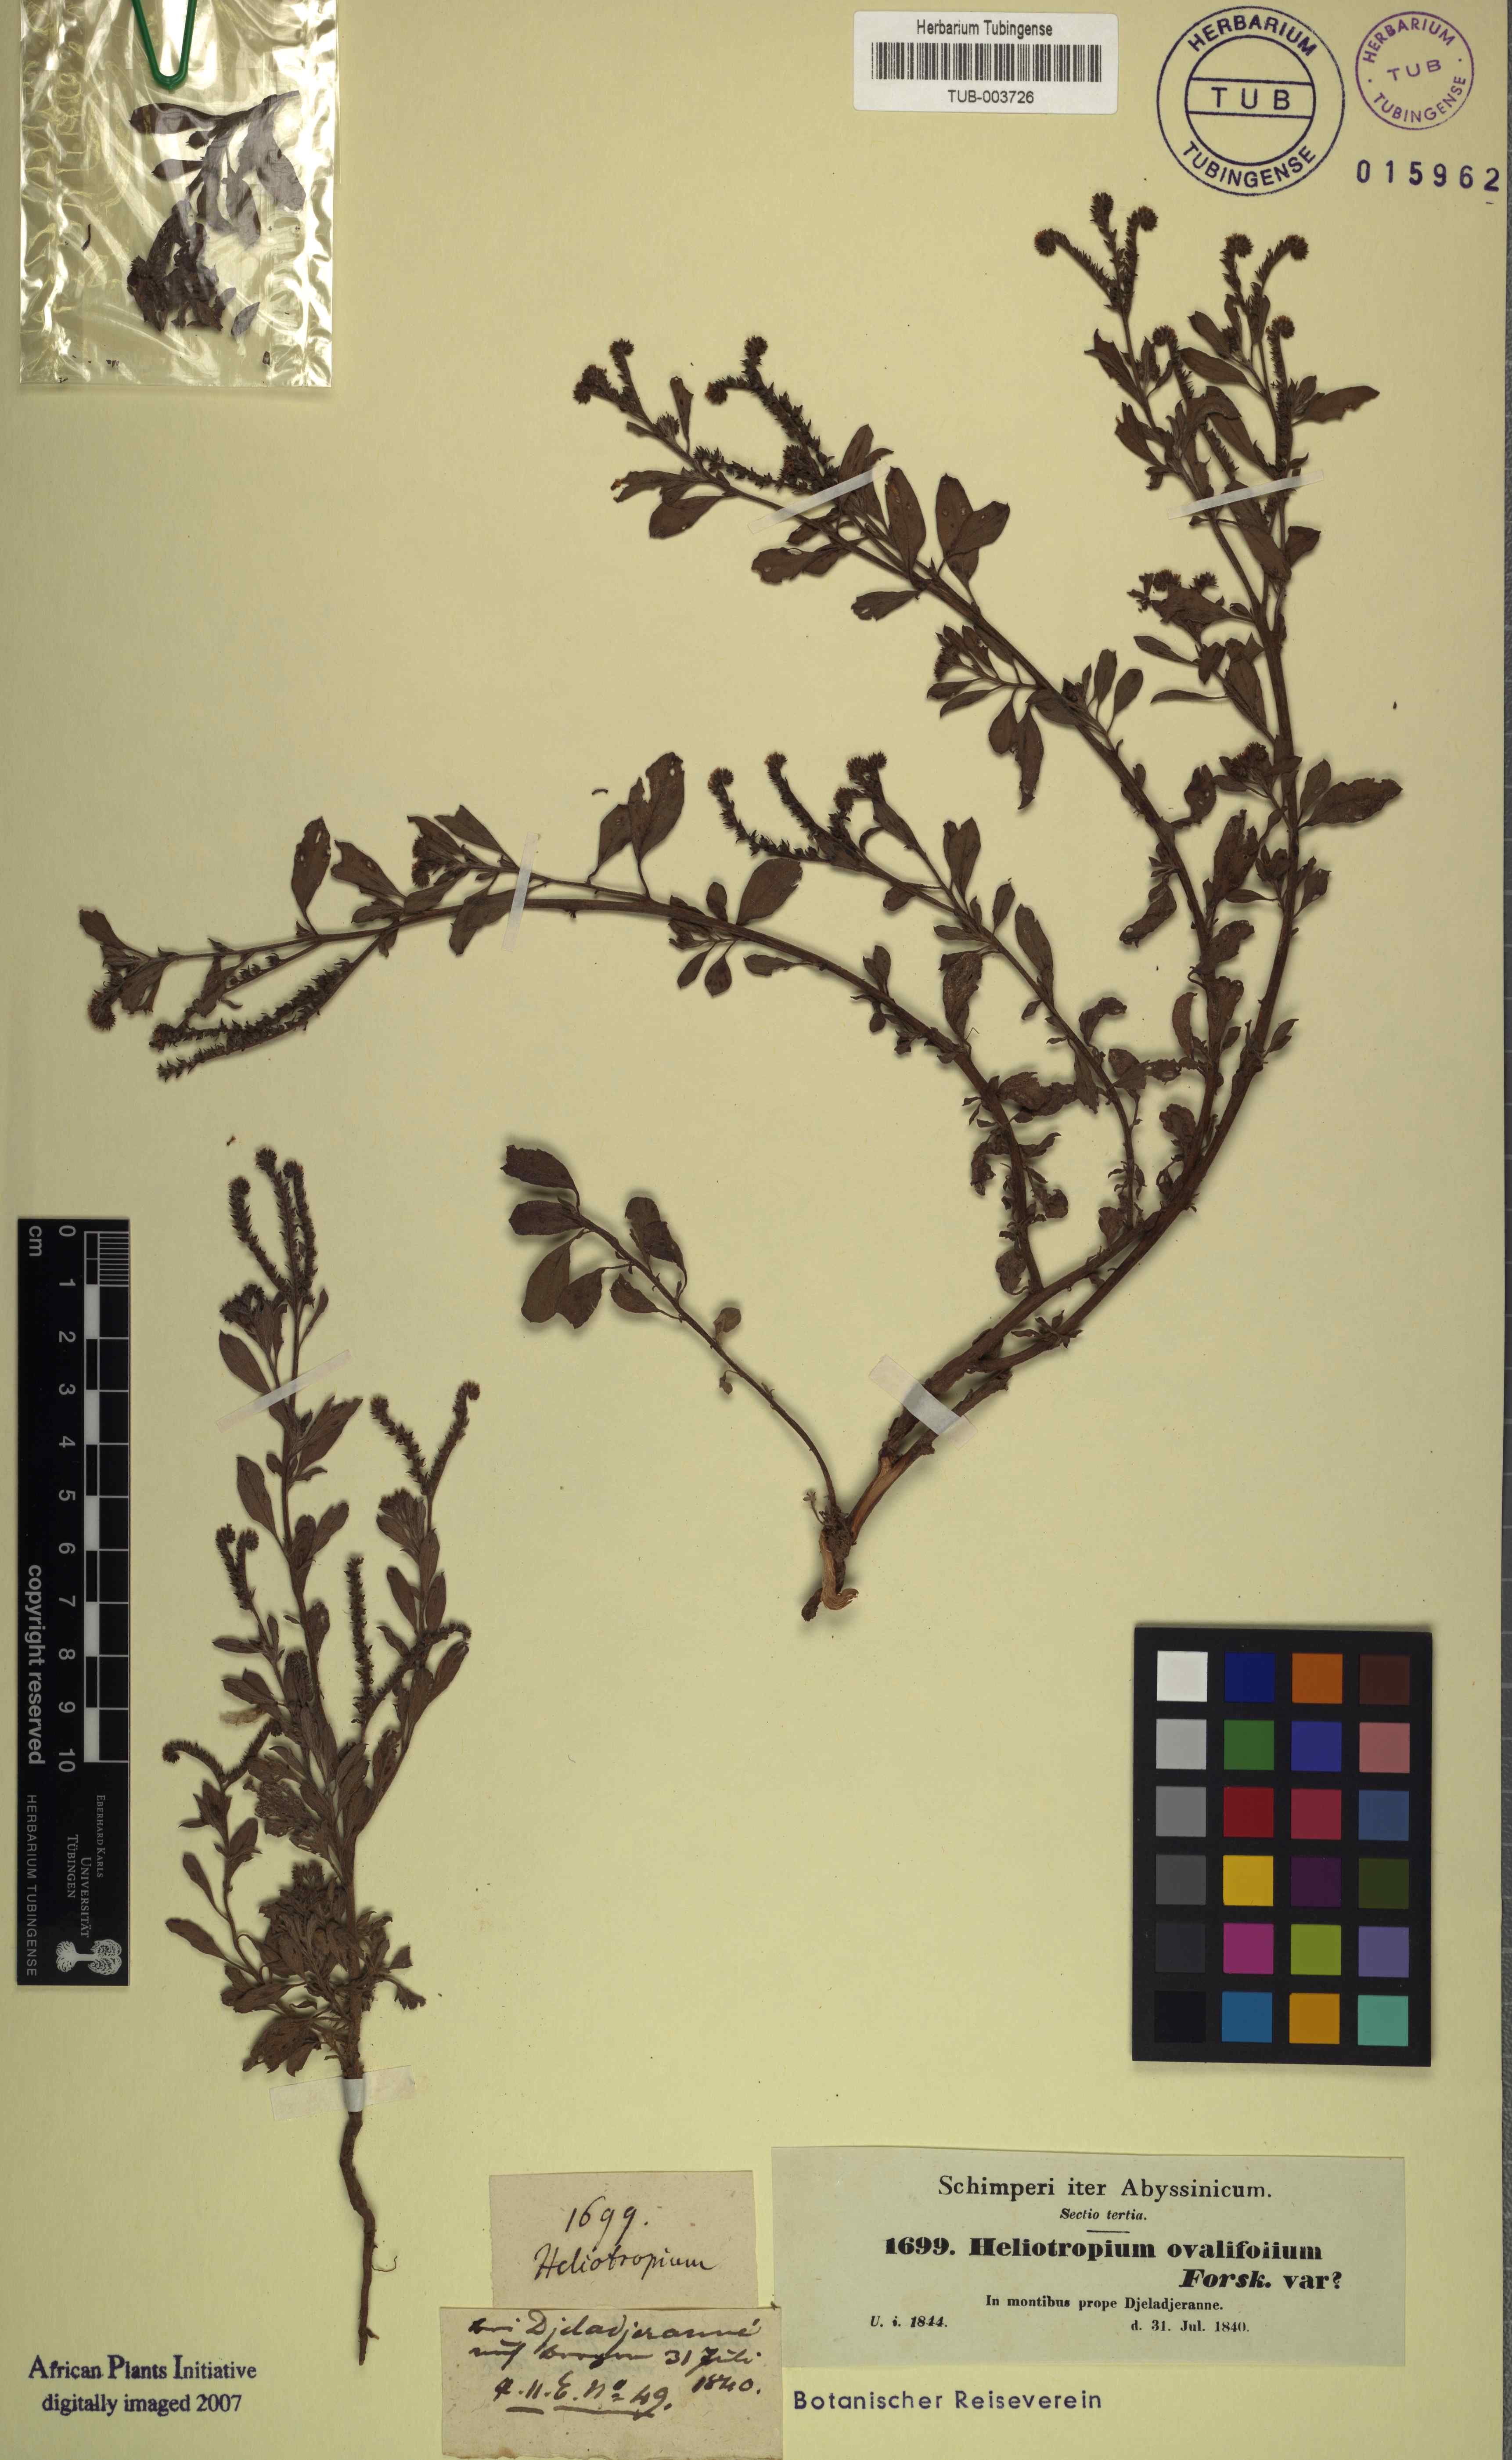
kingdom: Plantae
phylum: Tracheophyta
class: Magnoliopsida
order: Boraginales
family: Heliotropiaceae
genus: Euploca
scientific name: Euploca ovalifolia
